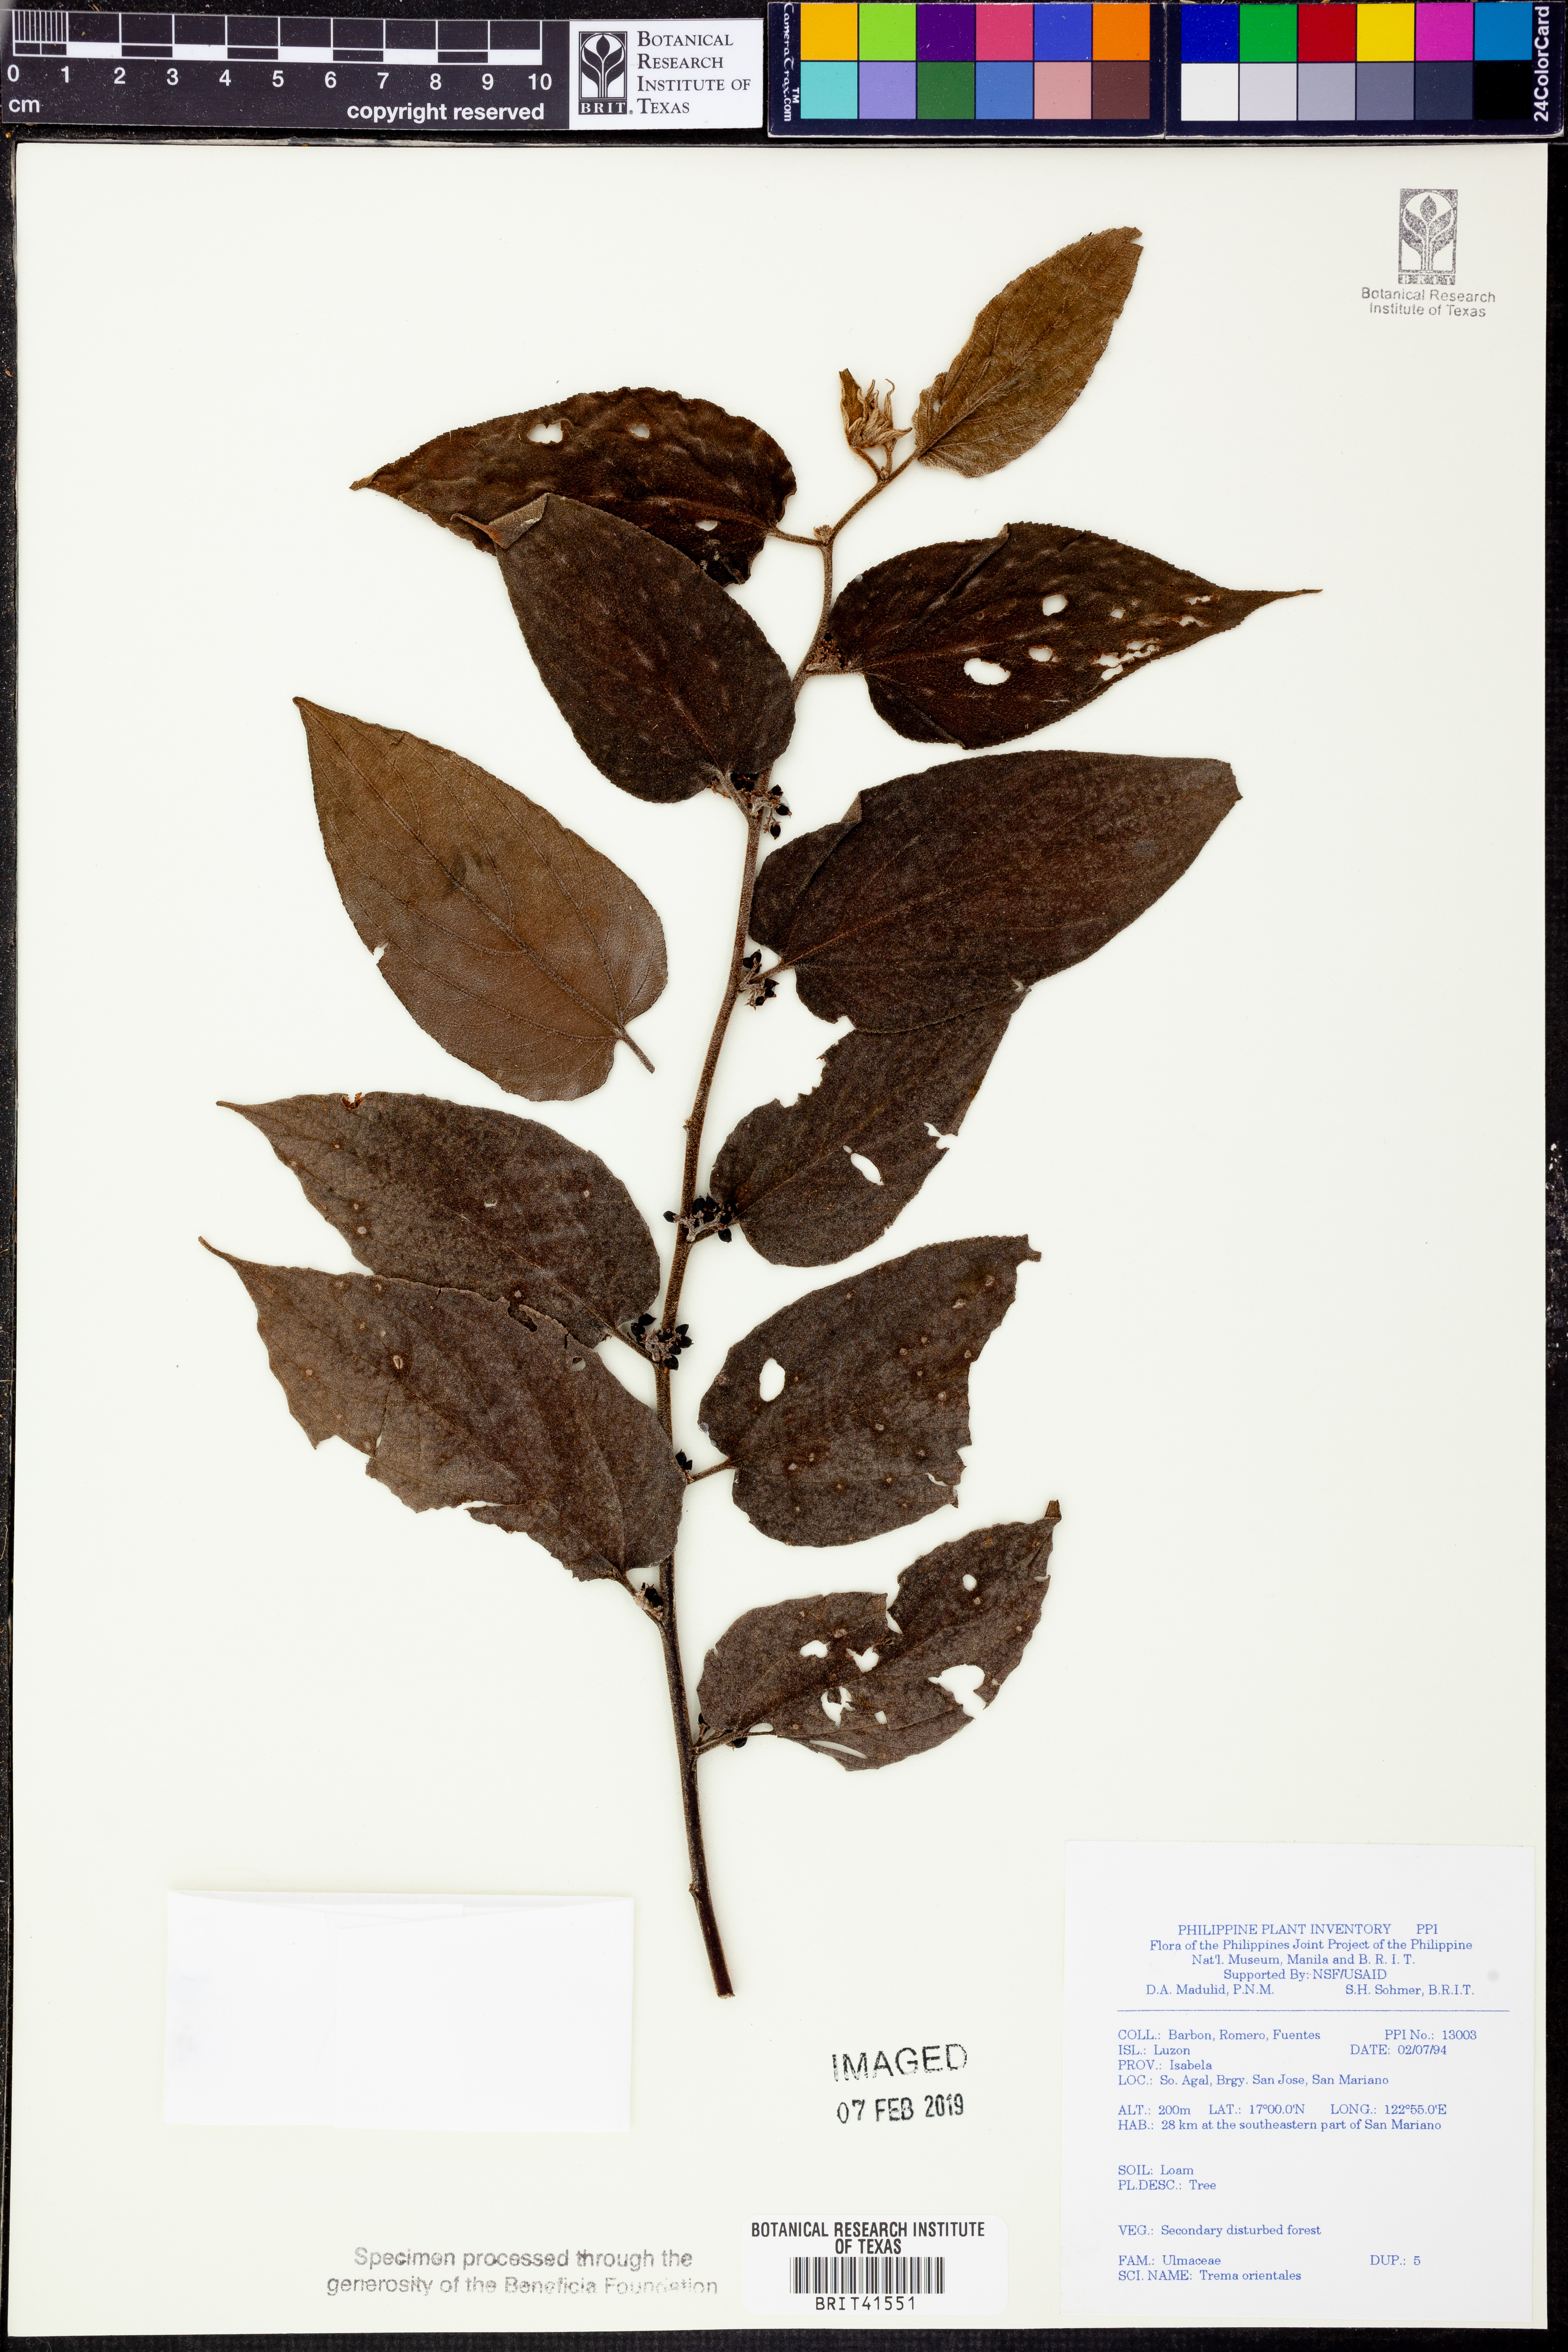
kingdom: Plantae
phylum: Tracheophyta
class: Magnoliopsida
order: Rosales
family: Cannabaceae
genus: Trema
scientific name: Trema orientale
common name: Indian charcoal tree
